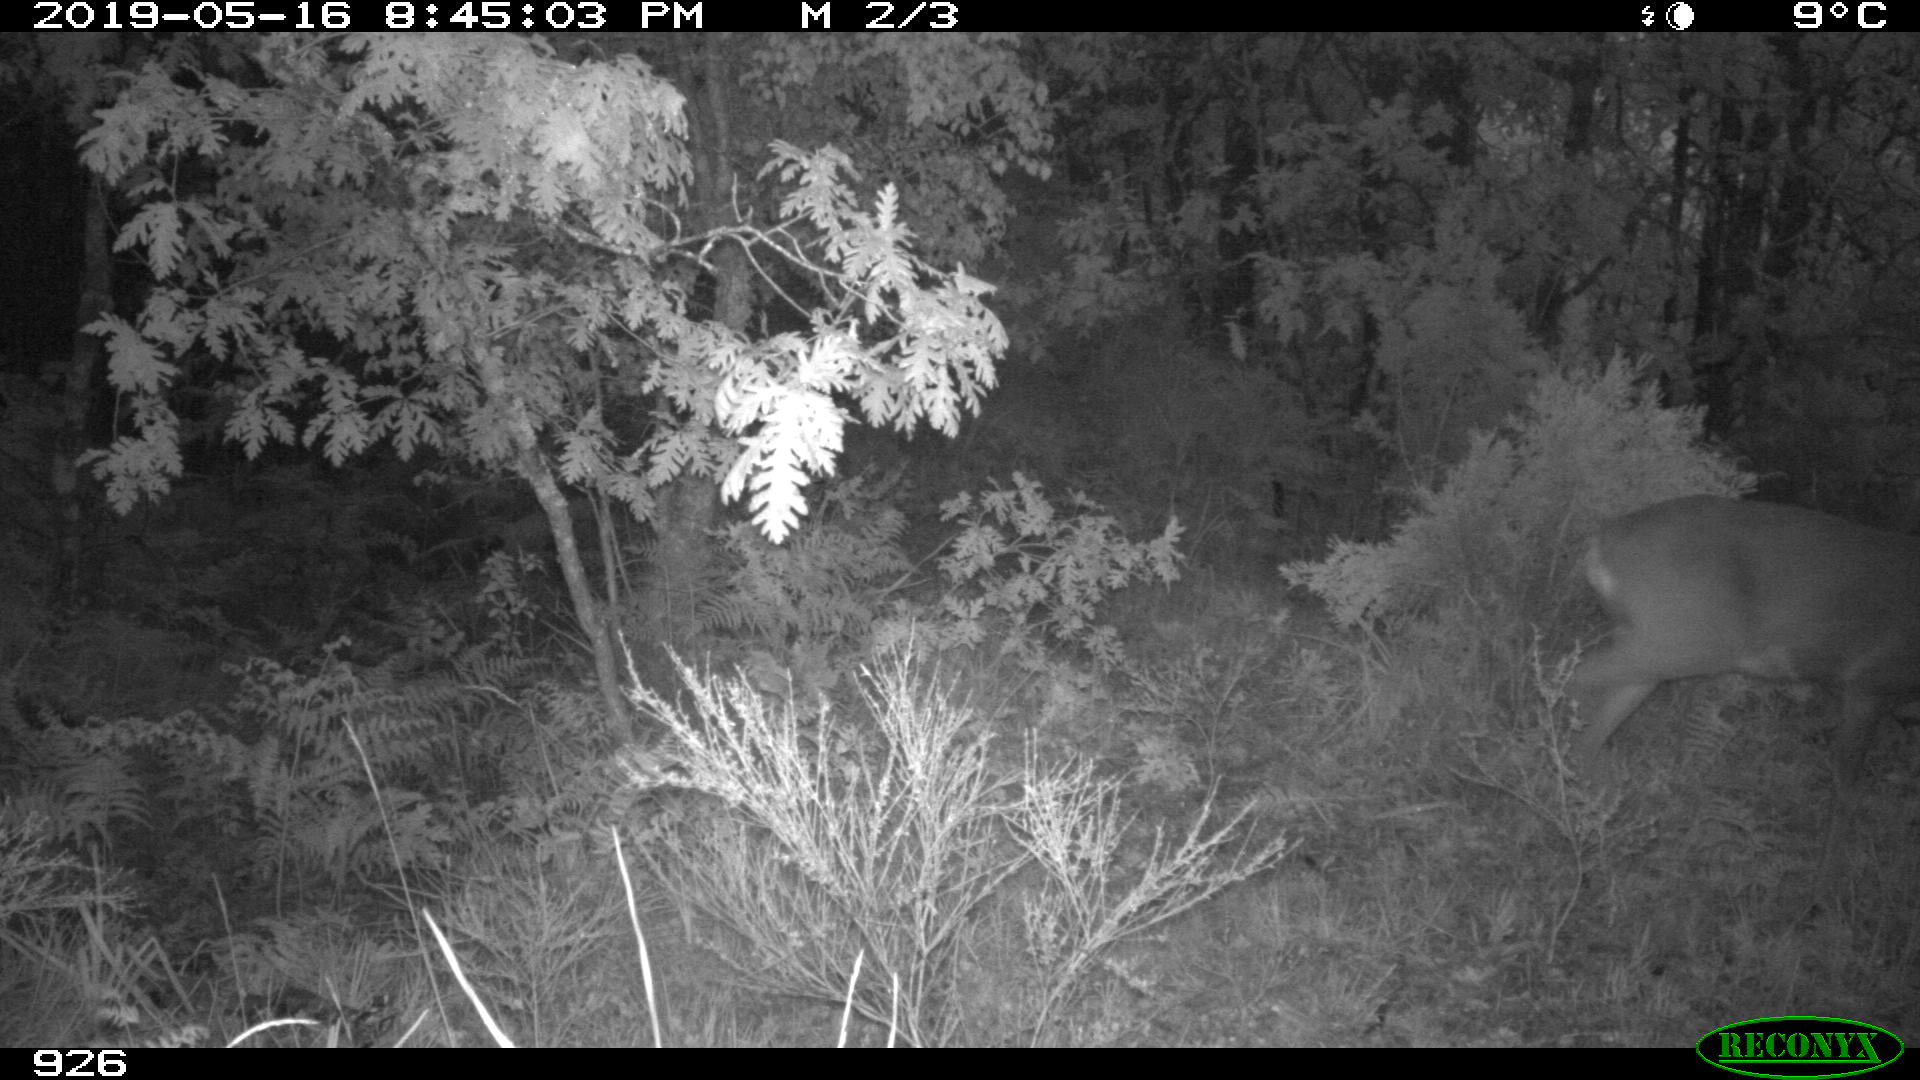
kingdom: Animalia
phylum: Chordata
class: Mammalia
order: Artiodactyla
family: Cervidae
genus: Capreolus
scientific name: Capreolus capreolus
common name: Western roe deer
